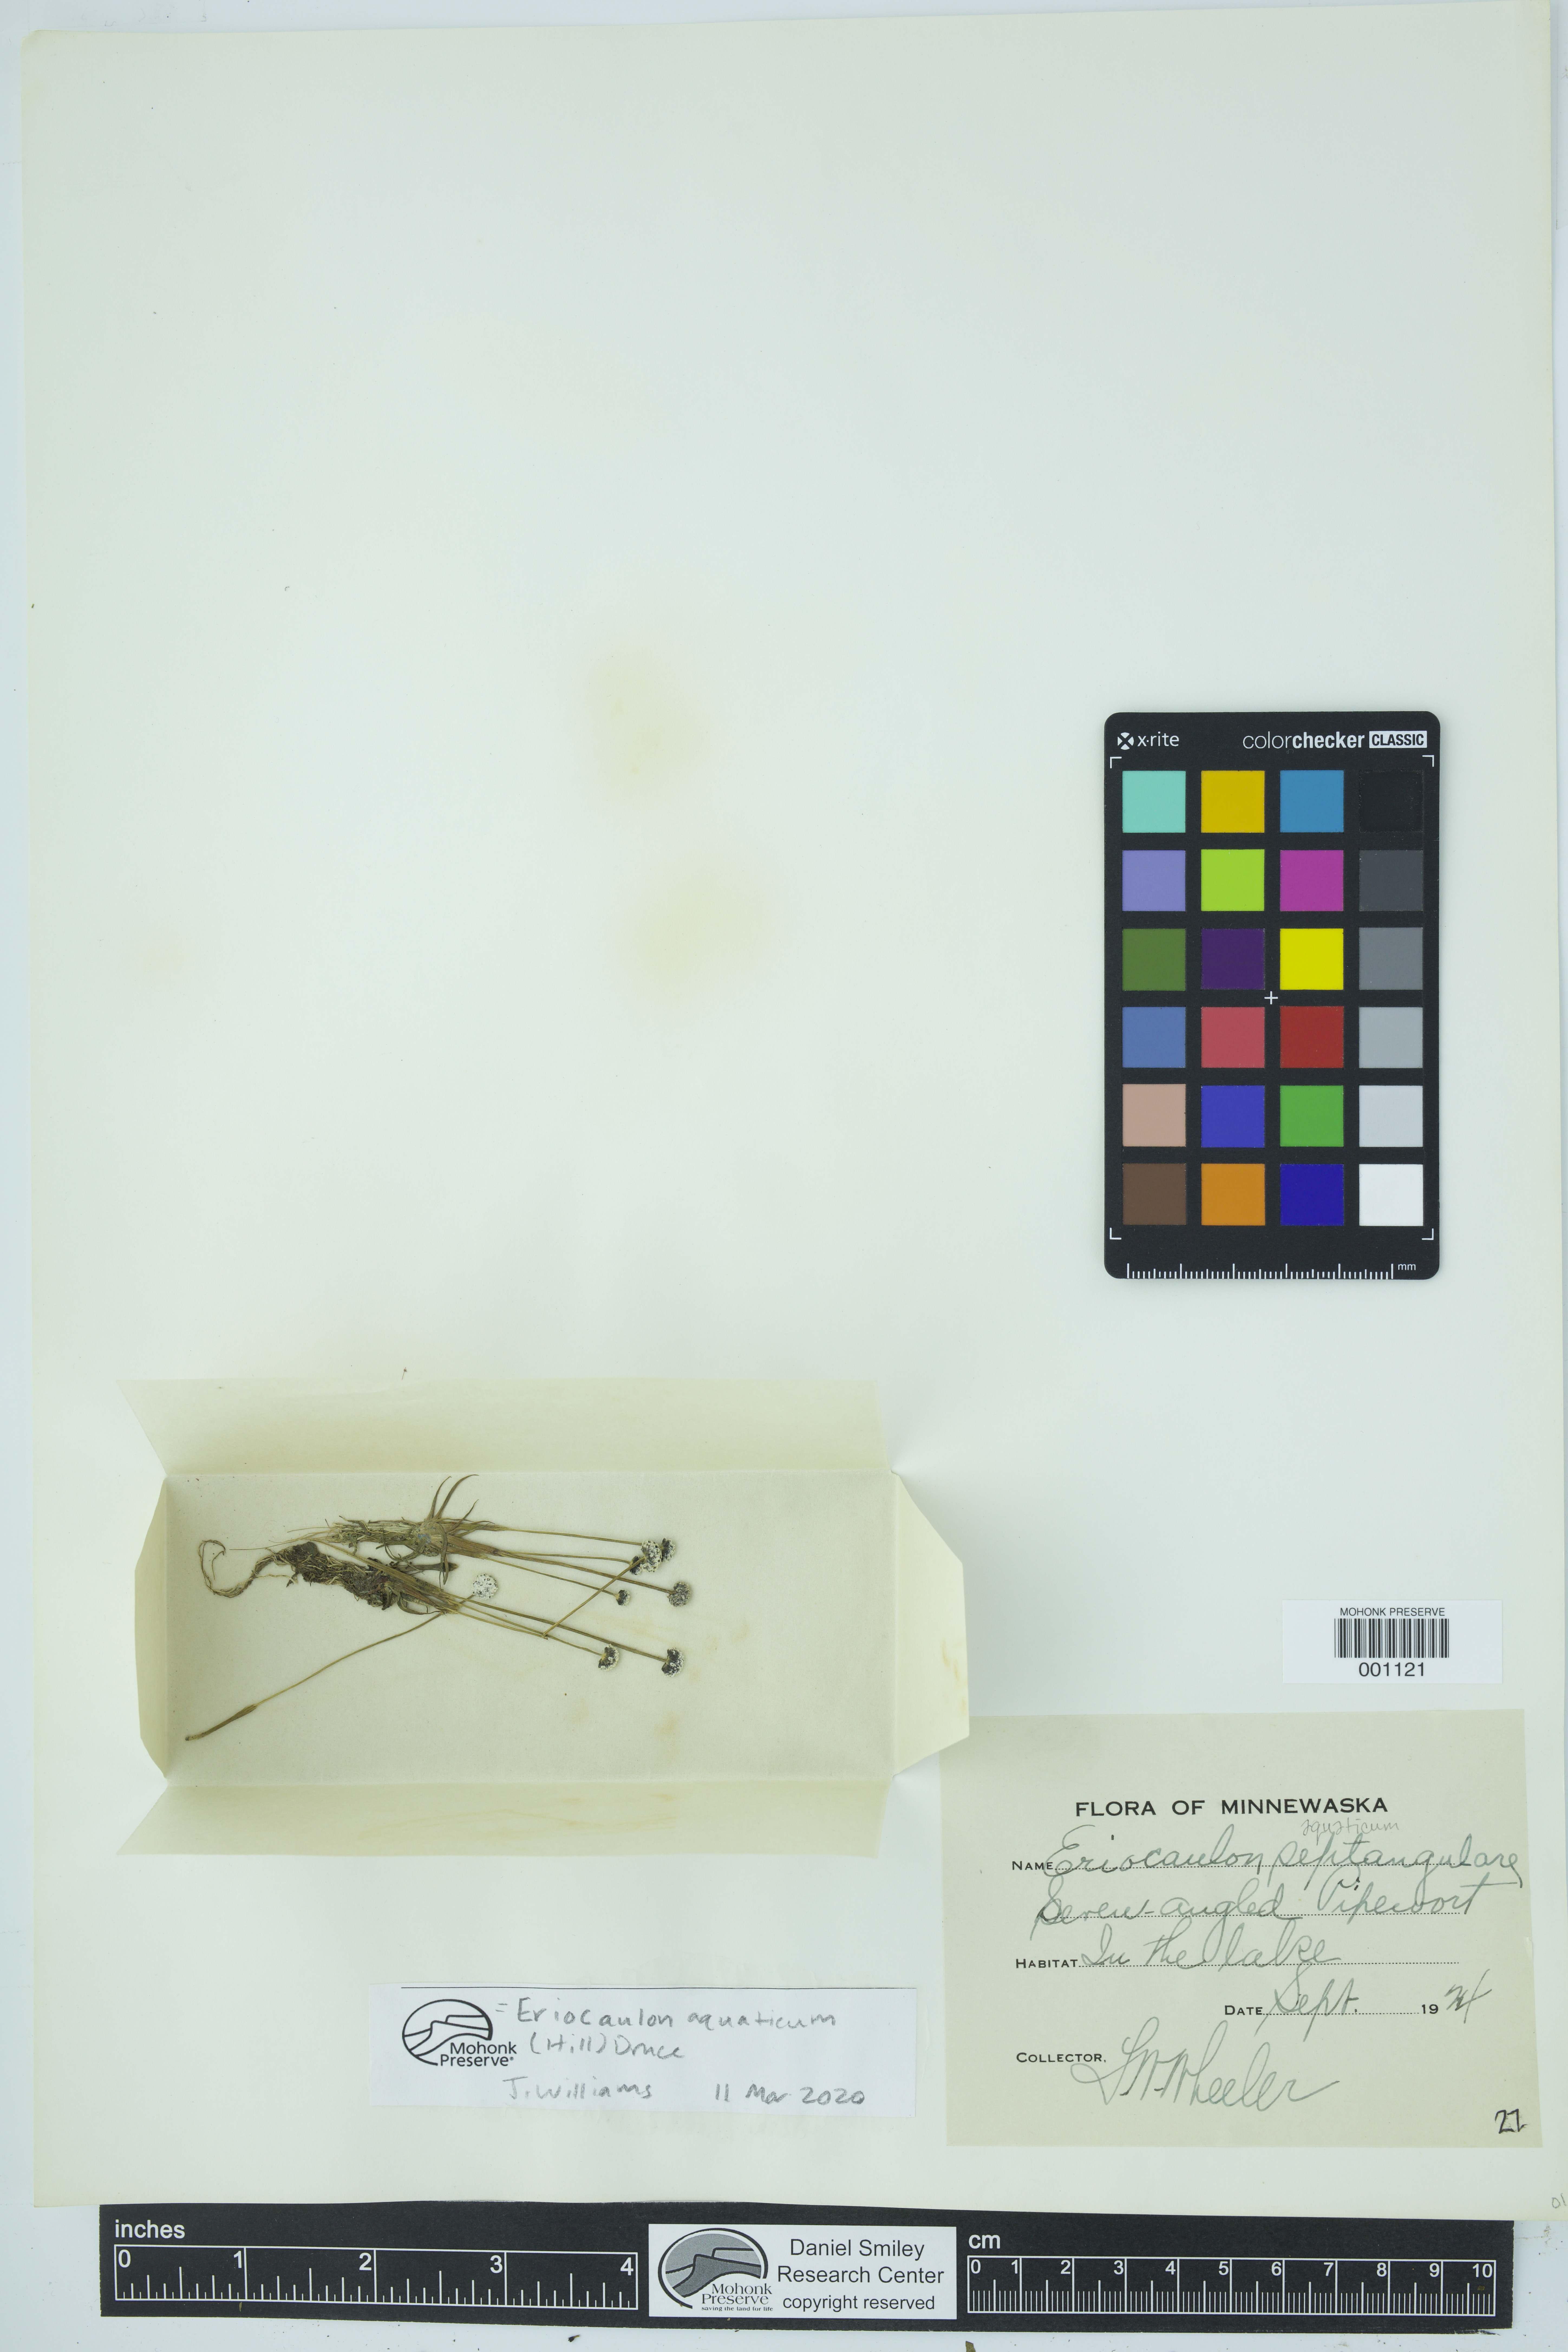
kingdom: Plantae
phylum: Tracheophyta
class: Liliopsida
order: Poales
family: Eriocaulaceae
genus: Eriocaulon
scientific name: Eriocaulon aquaticum
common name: Pipewort
